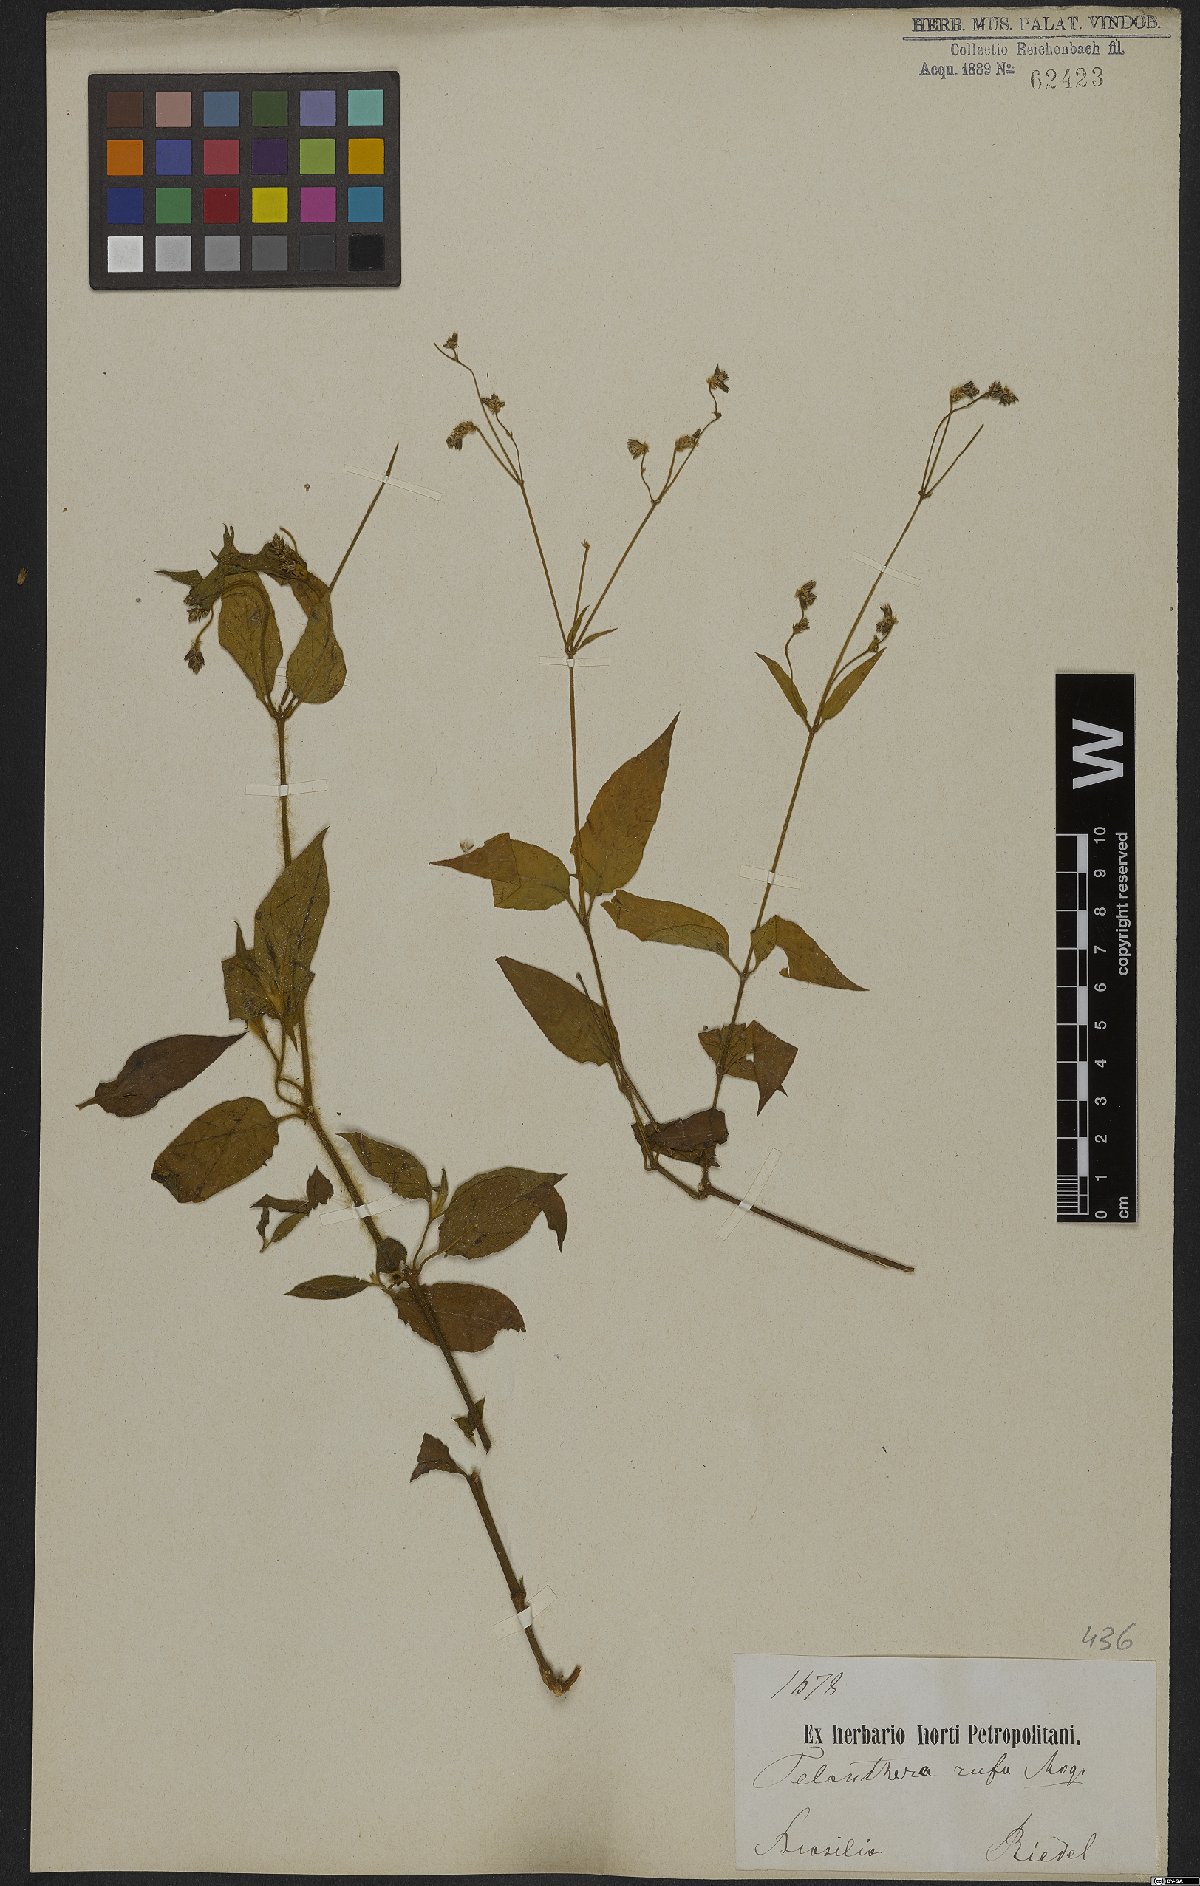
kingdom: Plantae
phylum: Tracheophyta
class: Magnoliopsida
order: Caryophyllales
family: Amaranthaceae
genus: Alternanthera
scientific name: Alternanthera rufa
